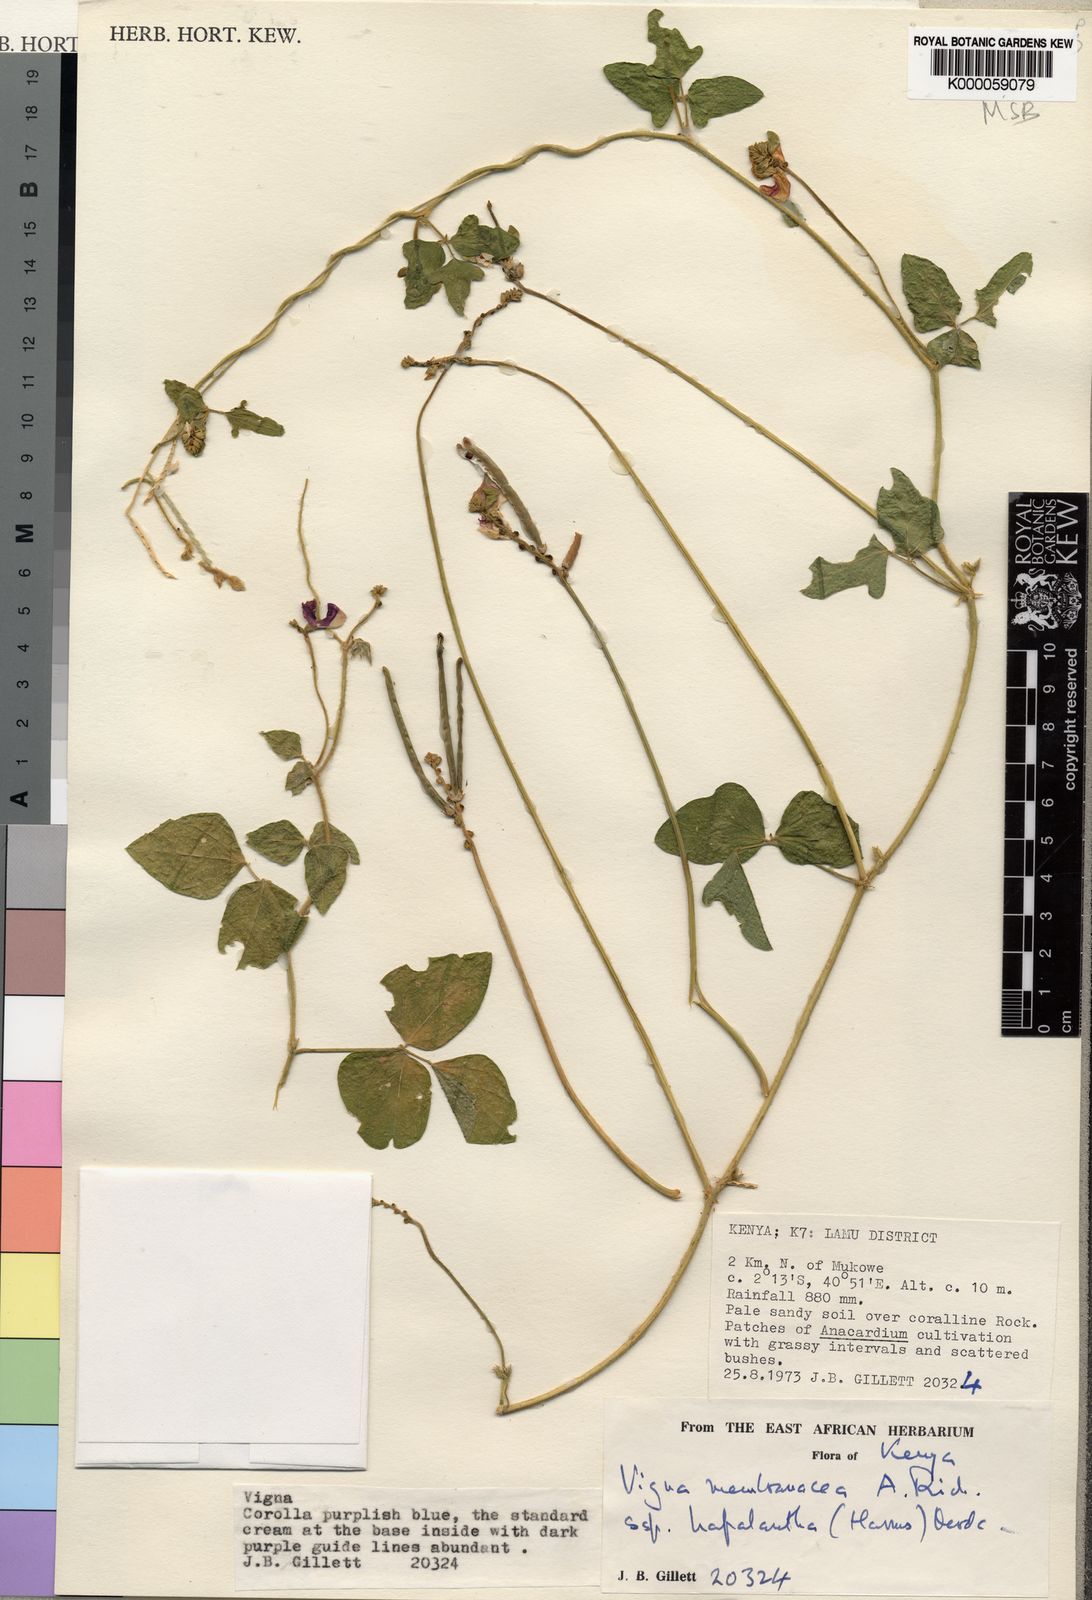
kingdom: Plantae
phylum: Tracheophyta
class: Magnoliopsida
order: Fabales
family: Fabaceae
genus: Vigna
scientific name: Vigna membranacea
